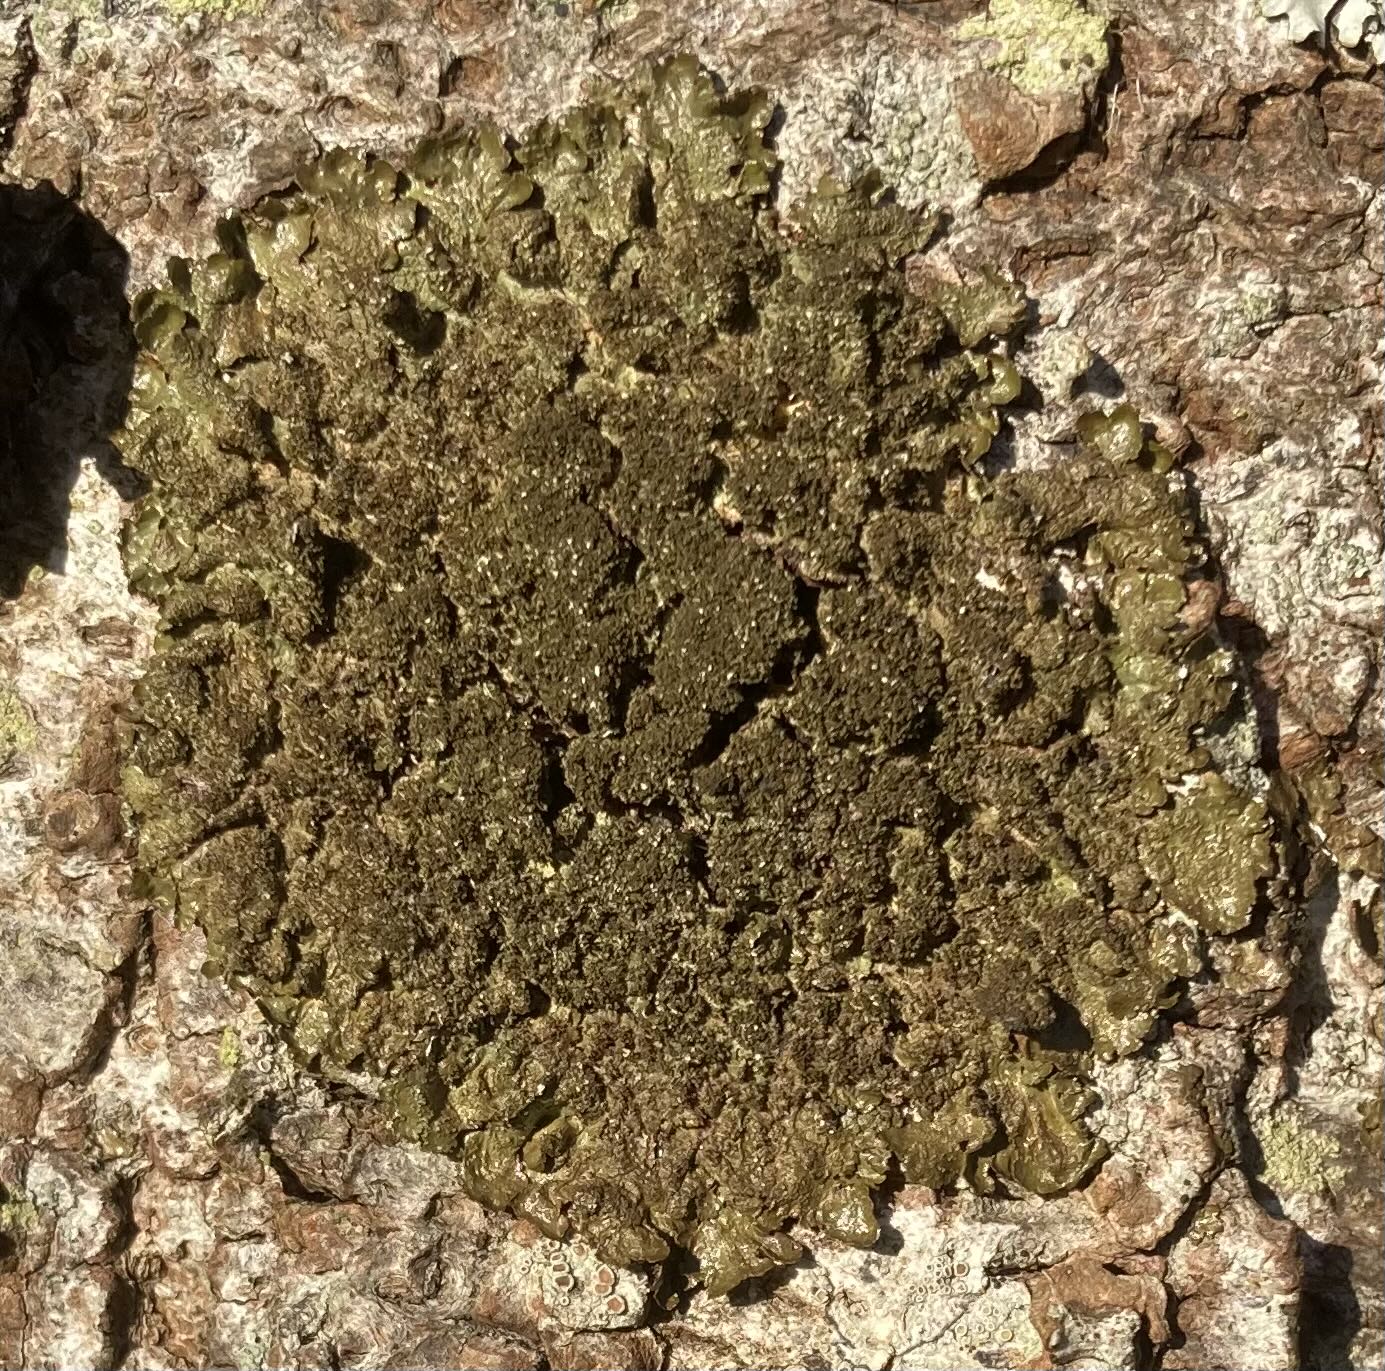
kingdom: Fungi
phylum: Ascomycota
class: Lecanoromycetes
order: Lecanorales
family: Parmeliaceae
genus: Melanelixia
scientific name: Melanelixia subaurifera
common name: guldpudret skållav
